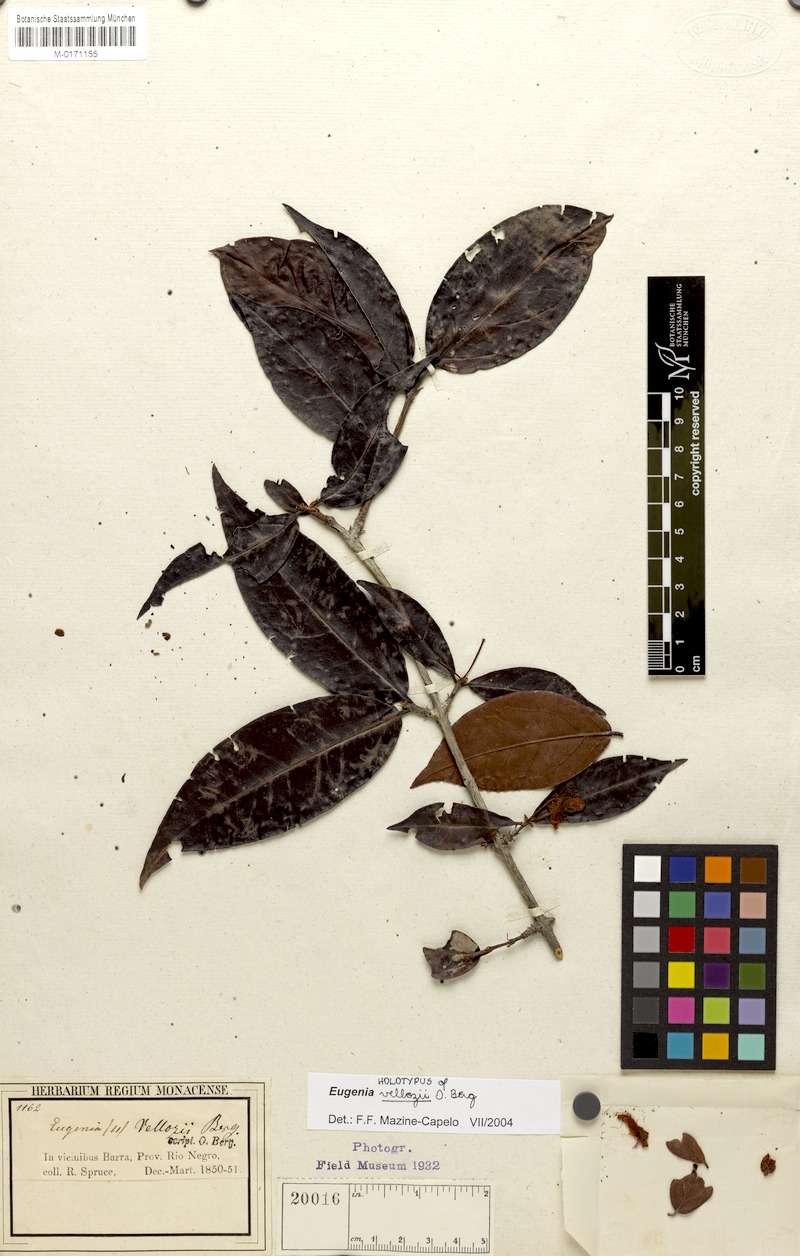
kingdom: Plantae
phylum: Tracheophyta
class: Magnoliopsida
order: Myrtales
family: Myrtaceae
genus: Eugenia
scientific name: Eugenia patrisii
